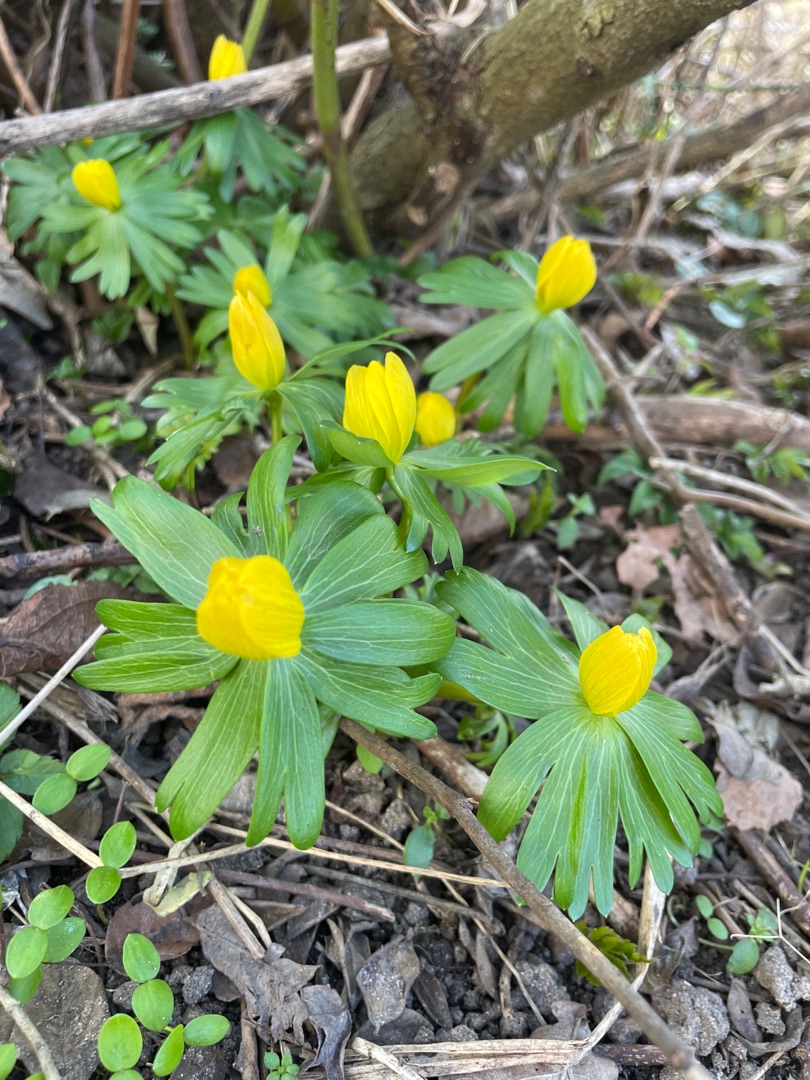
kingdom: Plantae
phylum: Tracheophyta
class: Magnoliopsida
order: Ranunculales
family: Ranunculaceae
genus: Eranthis
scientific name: Eranthis hyemalis
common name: Erantis
